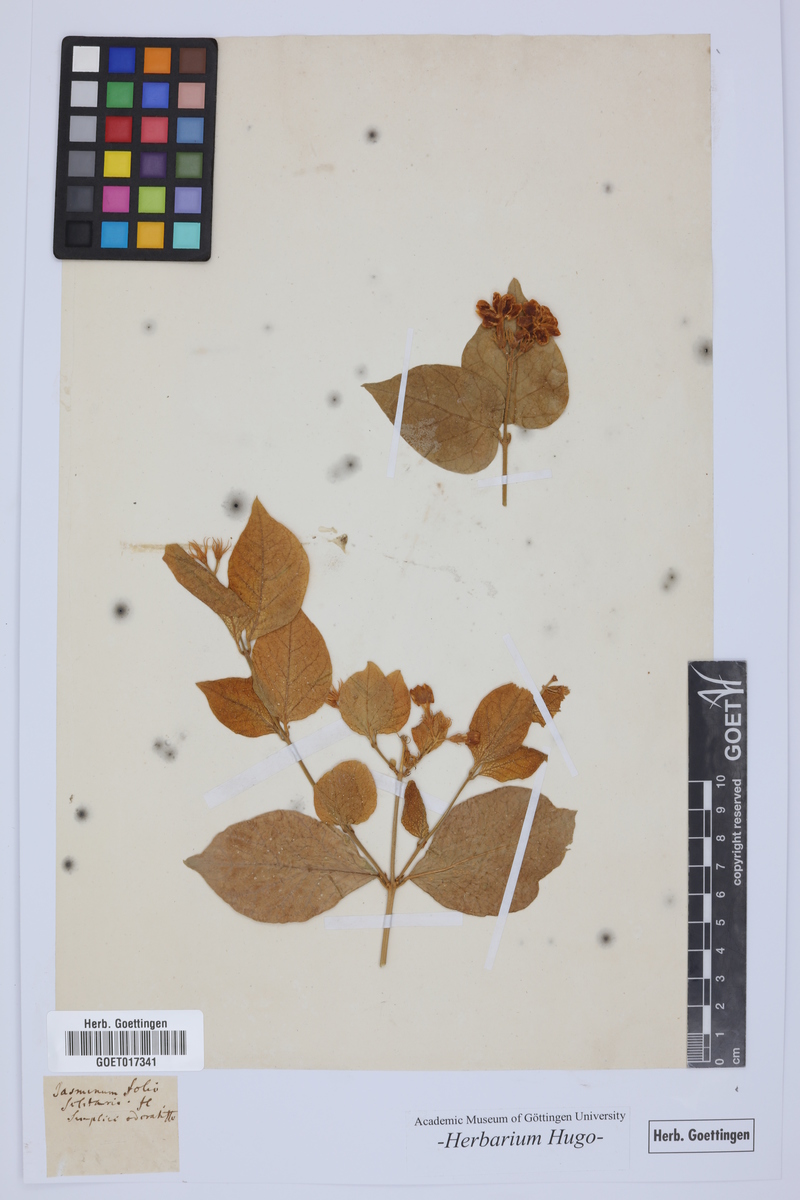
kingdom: Plantae
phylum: Tracheophyta
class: Magnoliopsida
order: Lamiales
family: Oleaceae
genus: Jasminum
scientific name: Jasminum
